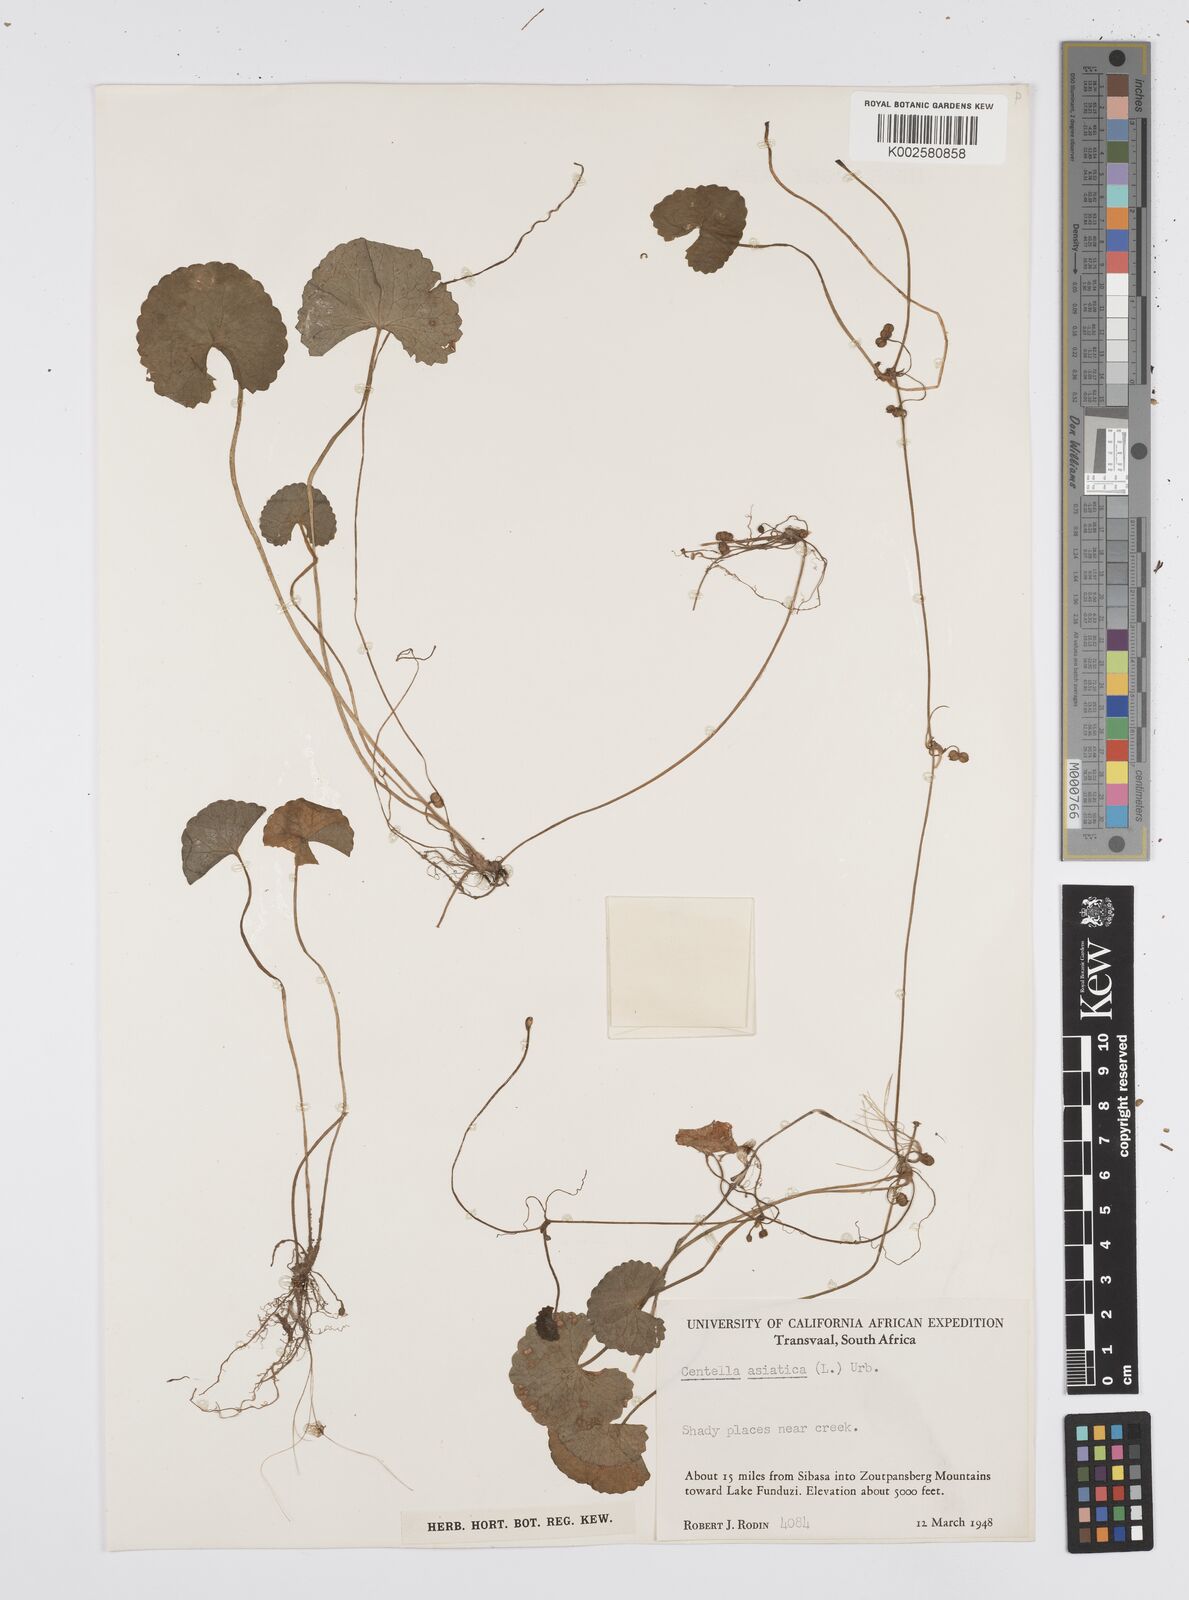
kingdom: Plantae
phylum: Tracheophyta
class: Magnoliopsida
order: Apiales
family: Apiaceae
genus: Centella
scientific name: Centella coriacea
